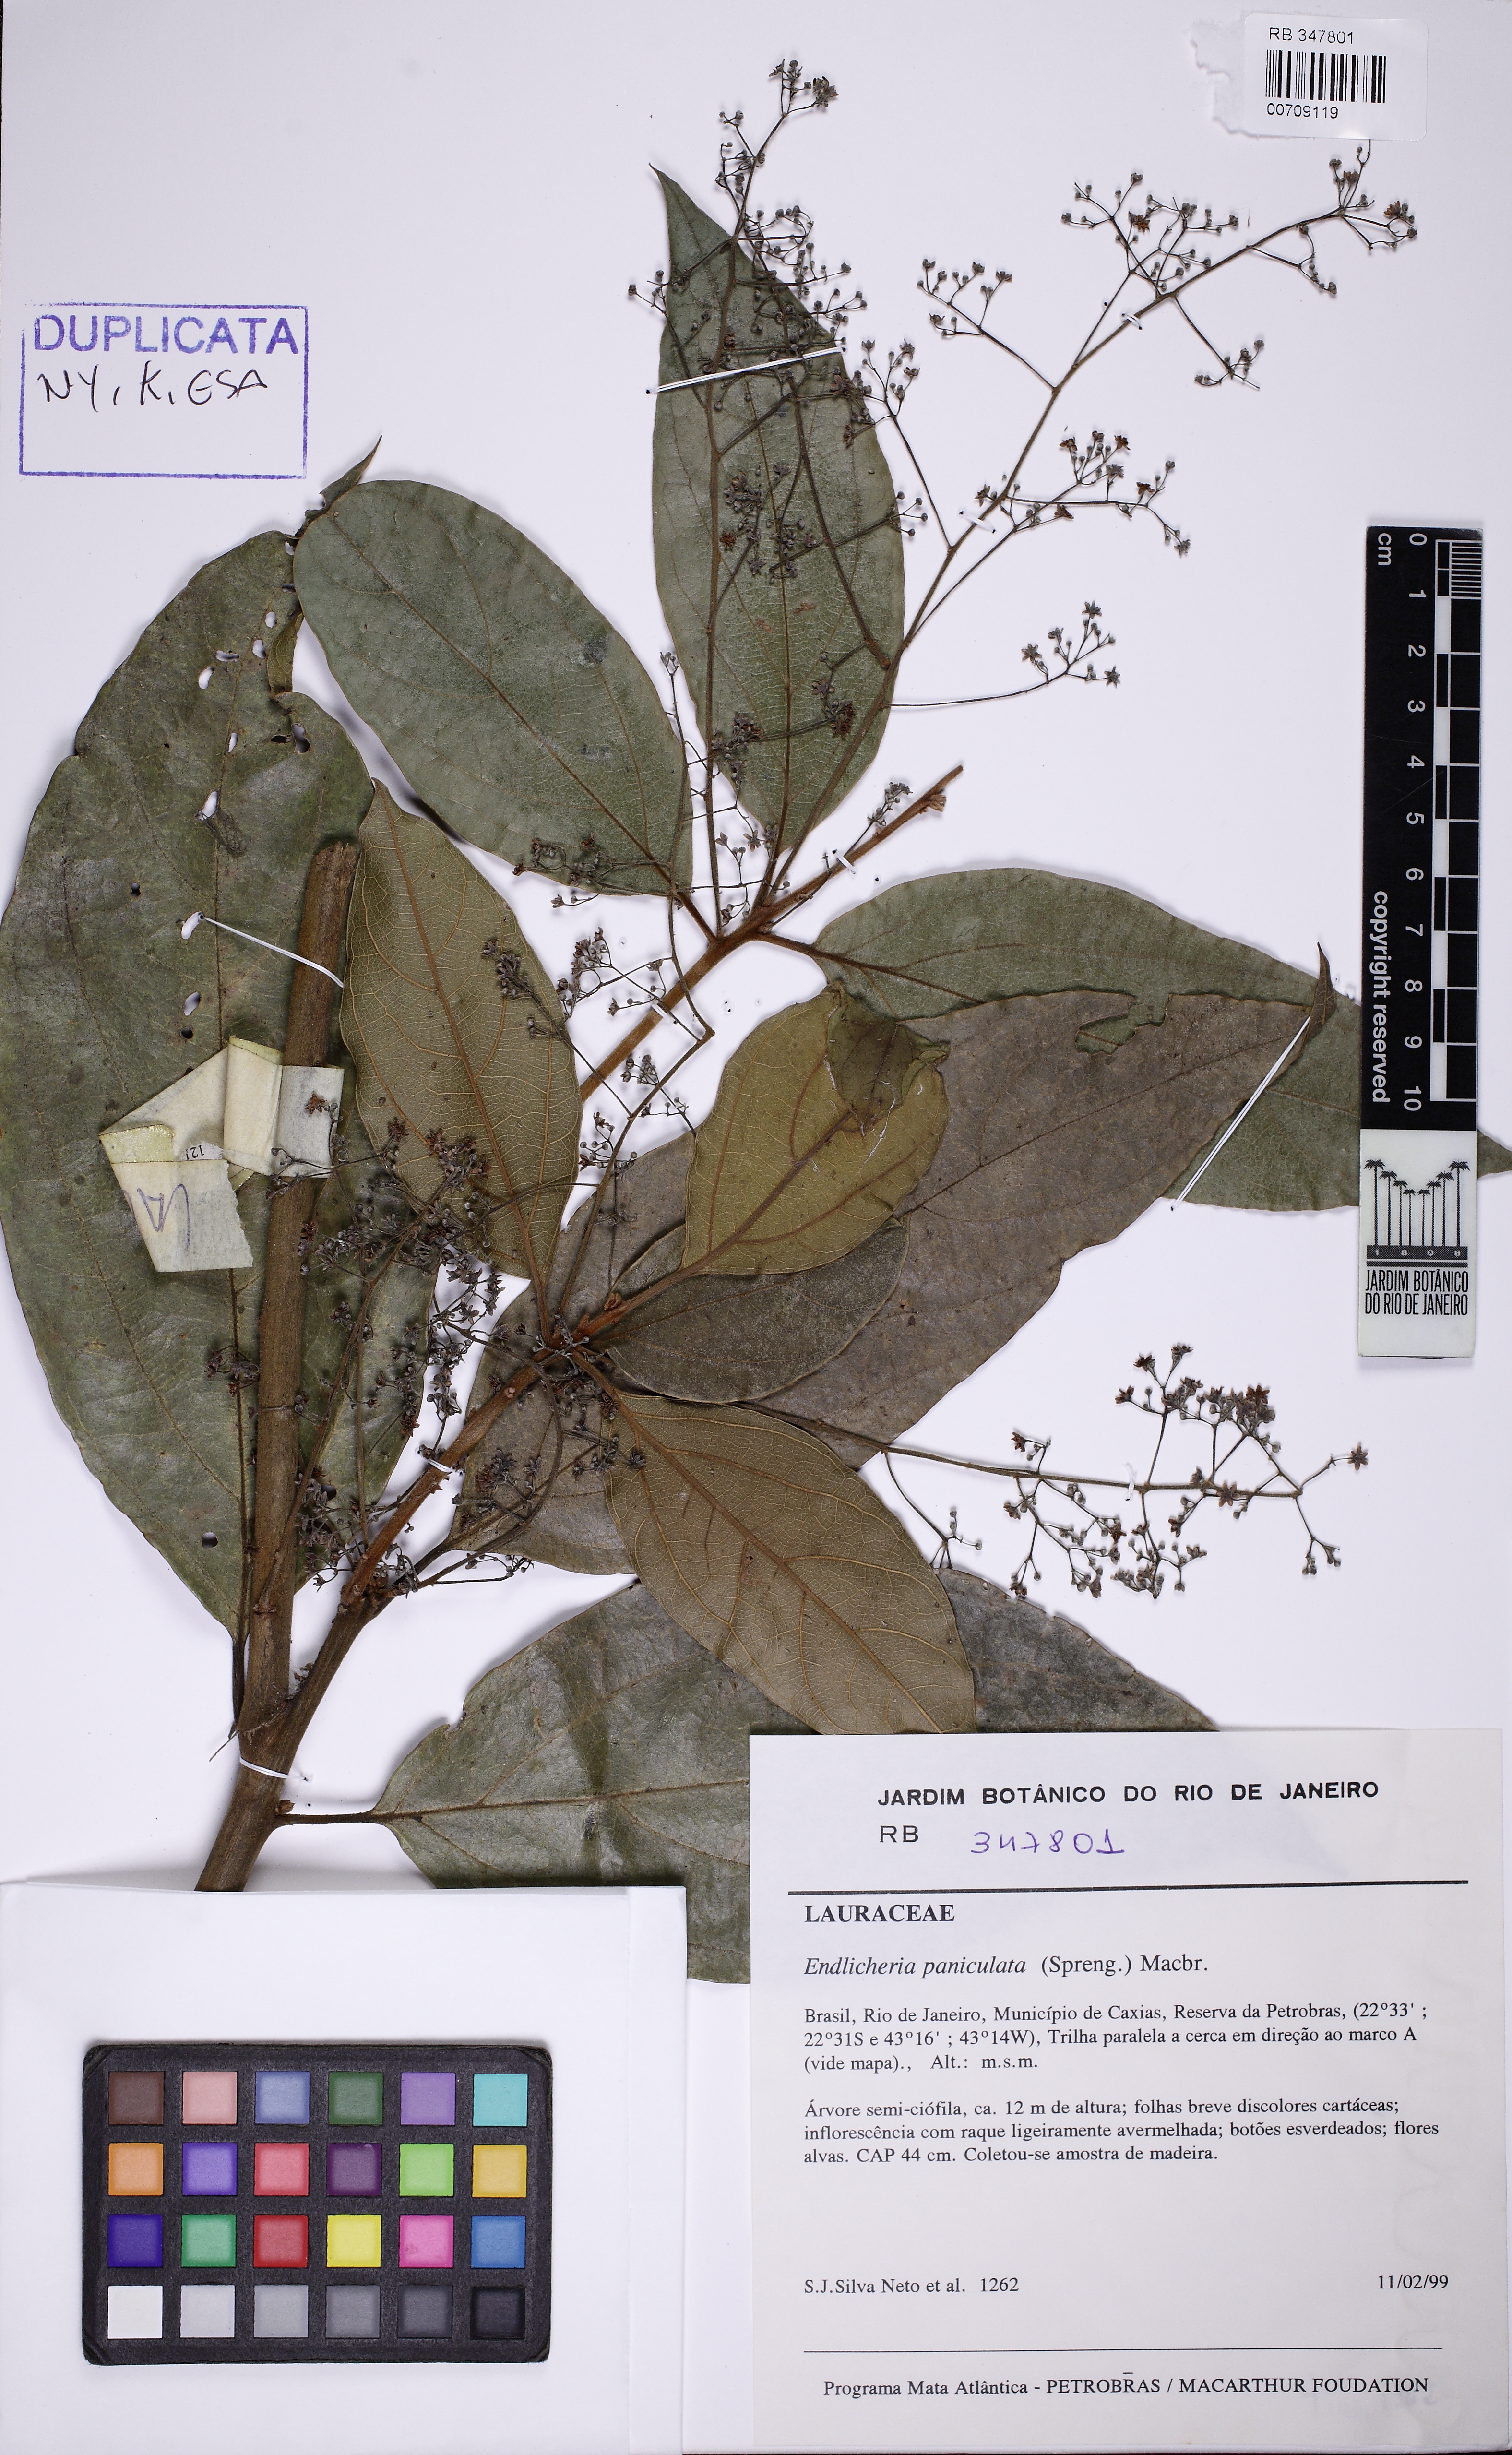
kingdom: Plantae
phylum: Tracheophyta
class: Magnoliopsida
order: Laurales
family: Lauraceae
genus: Endlicheria
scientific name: Endlicheria paniculata
